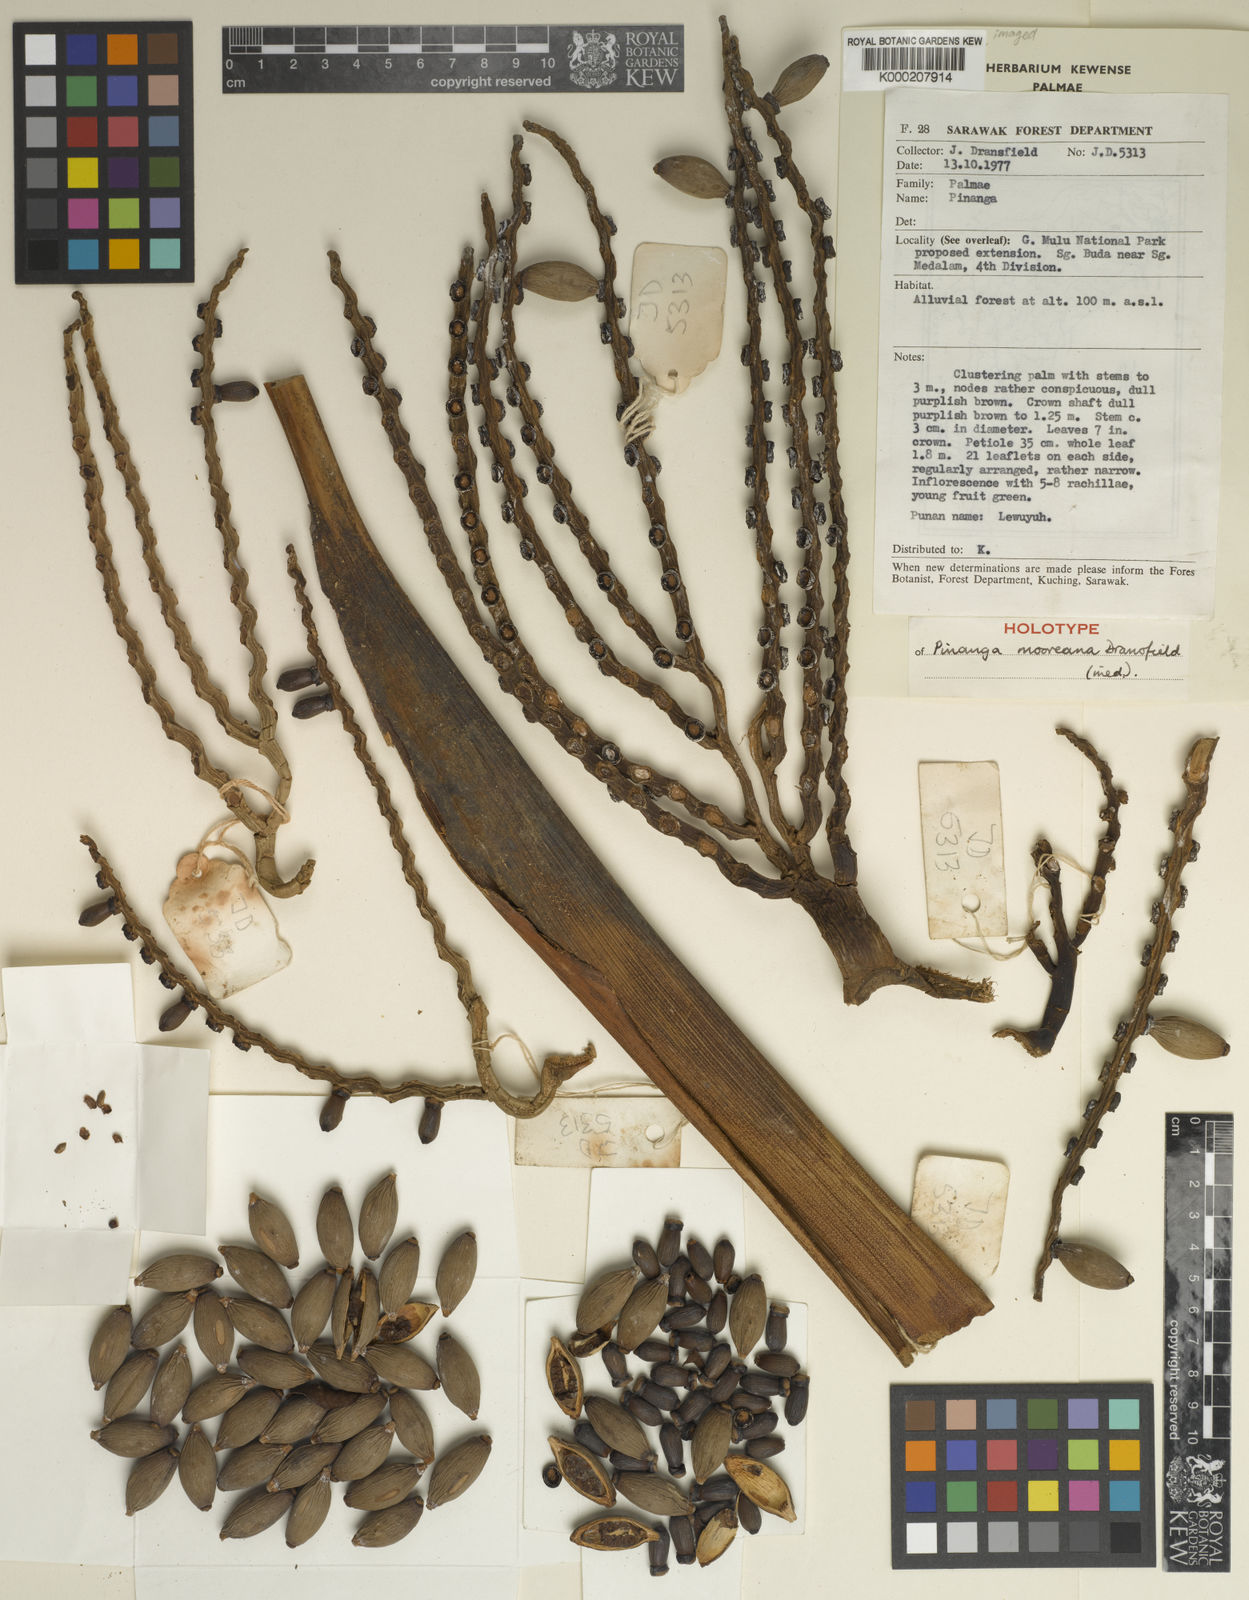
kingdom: Plantae
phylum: Tracheophyta
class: Liliopsida
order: Arecales
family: Arecaceae
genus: Pinanga
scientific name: Pinanga mooreana
